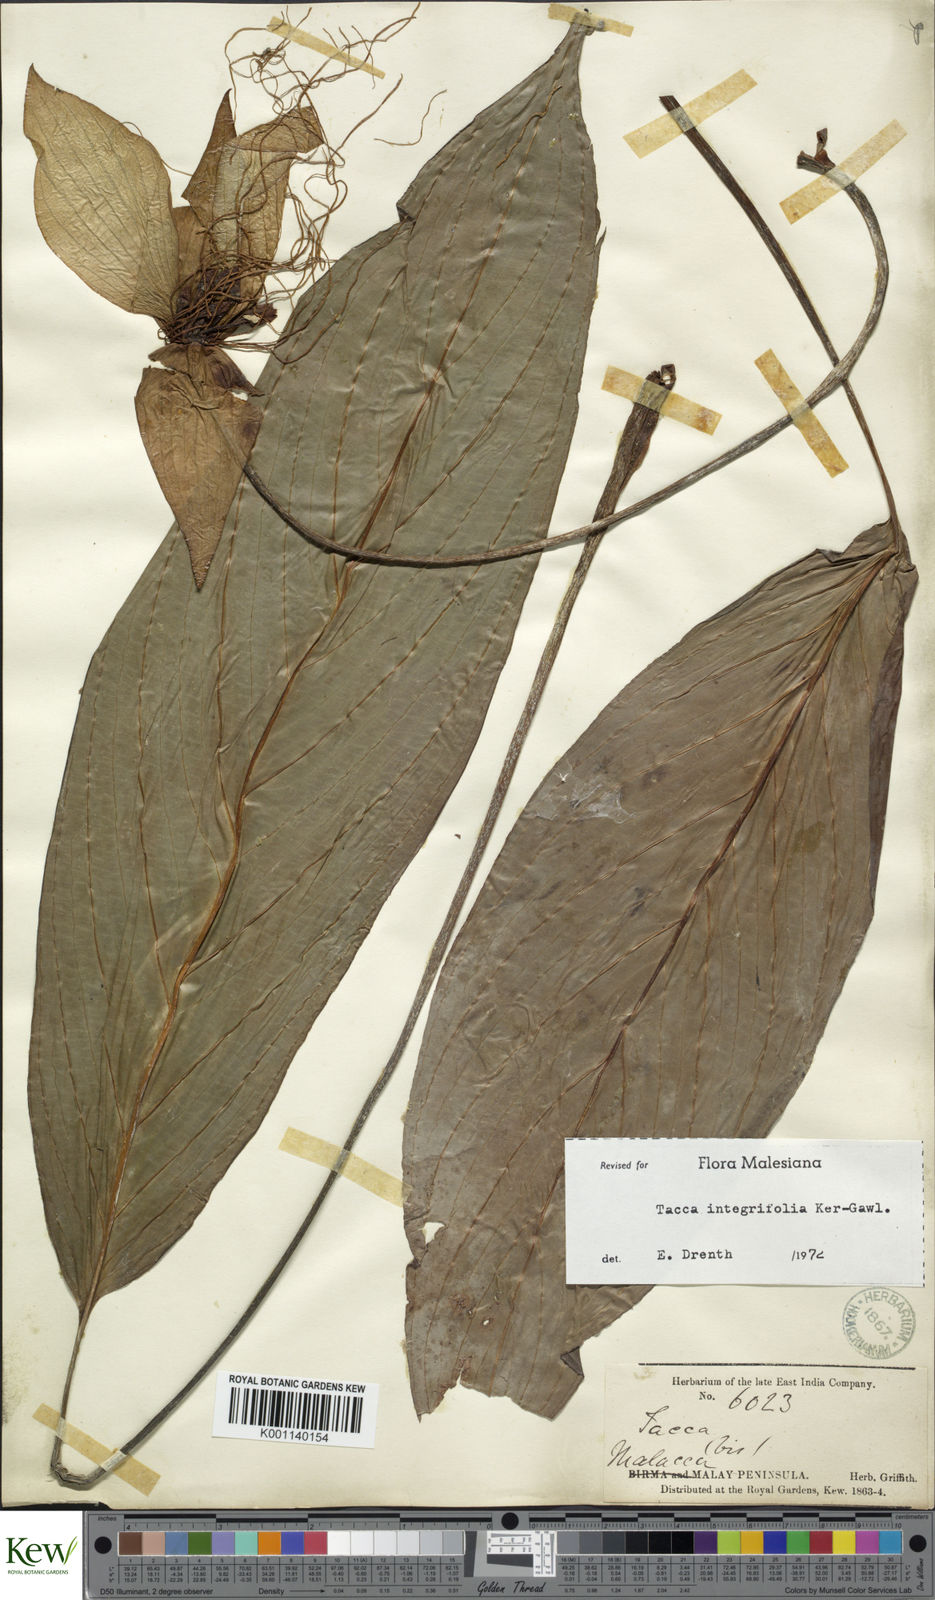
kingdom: Plantae
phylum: Tracheophyta
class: Liliopsida
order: Dioscoreales
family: Dioscoreaceae
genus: Tacca
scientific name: Tacca integrifolia
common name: Batplant
